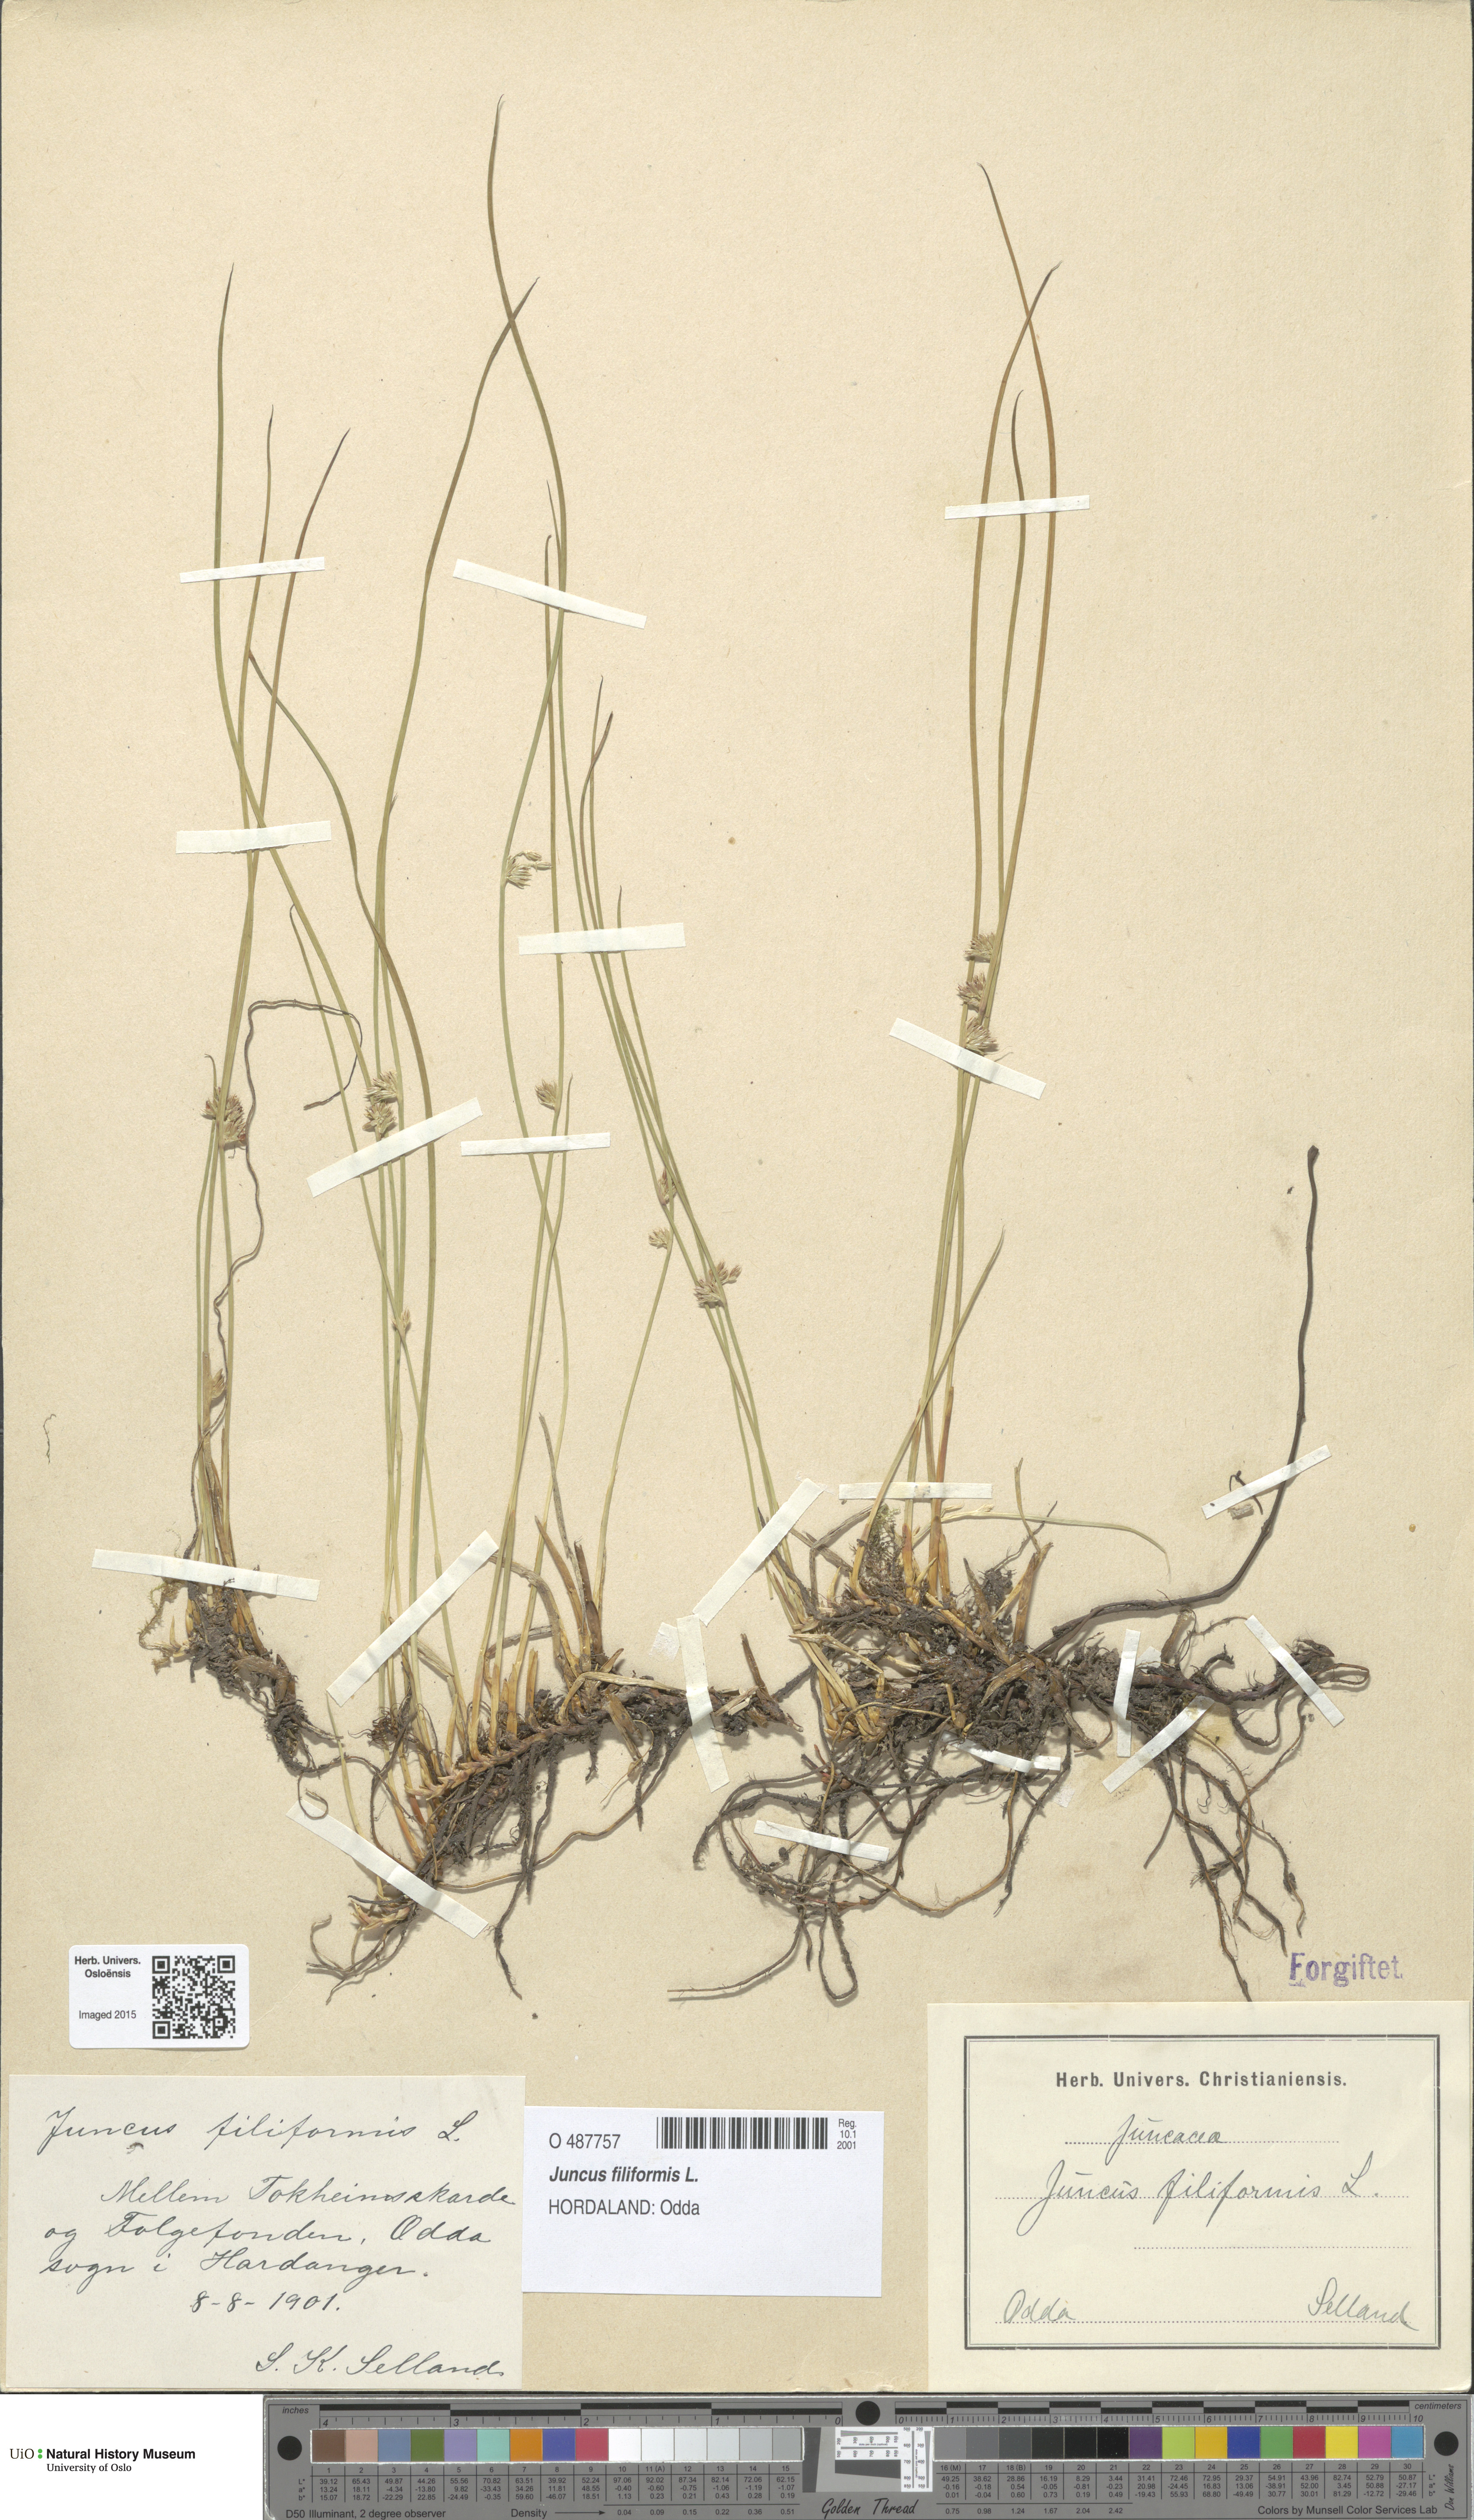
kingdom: Plantae
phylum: Tracheophyta
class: Liliopsida
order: Poales
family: Juncaceae
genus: Juncus
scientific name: Juncus filiformis
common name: Thread rush
